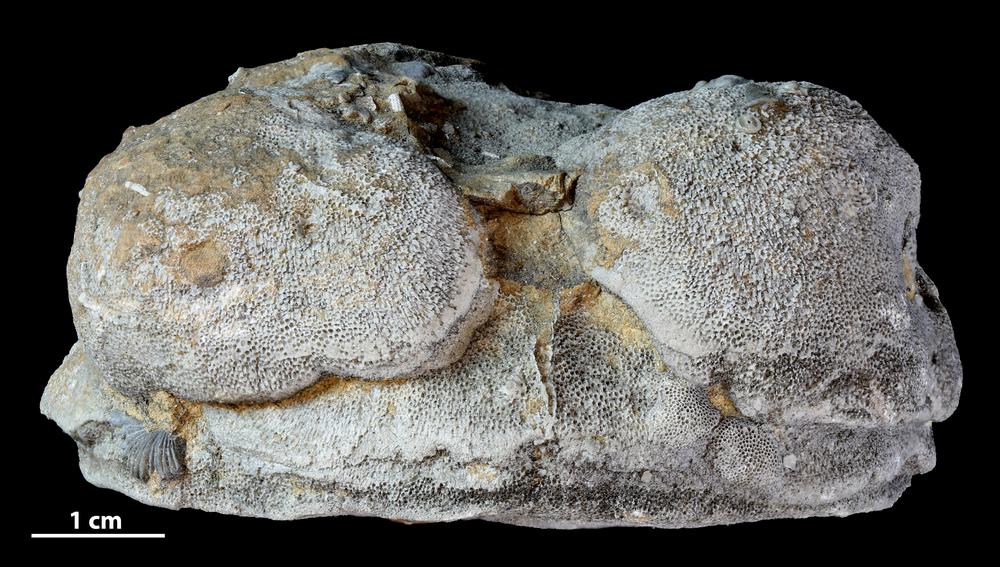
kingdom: Animalia
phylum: Bryozoa
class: Stenolaemata
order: Trepostomatida
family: Diplotrypidae
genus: Diplotrypa
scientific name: Diplotrypa
